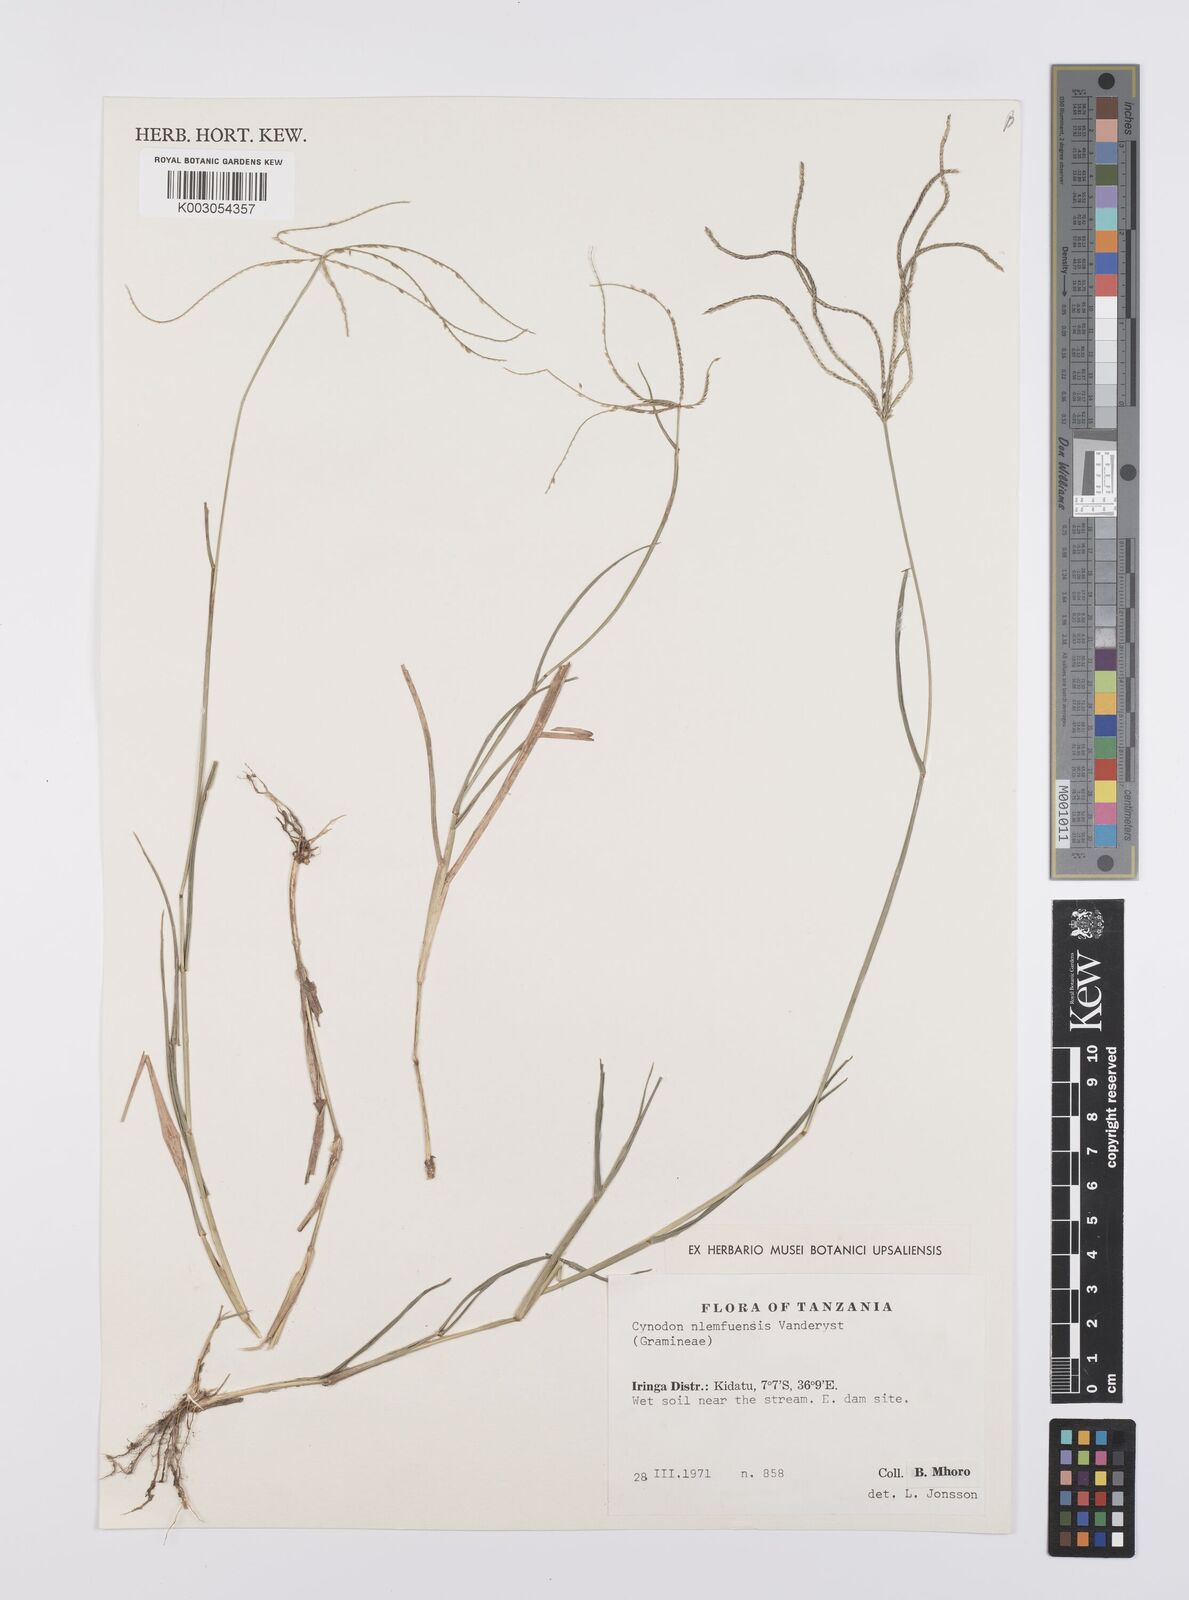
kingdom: Plantae
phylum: Tracheophyta
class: Liliopsida
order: Poales
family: Poaceae
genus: Cynodon
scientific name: Cynodon nlemfuensis
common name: African bermudagrass
